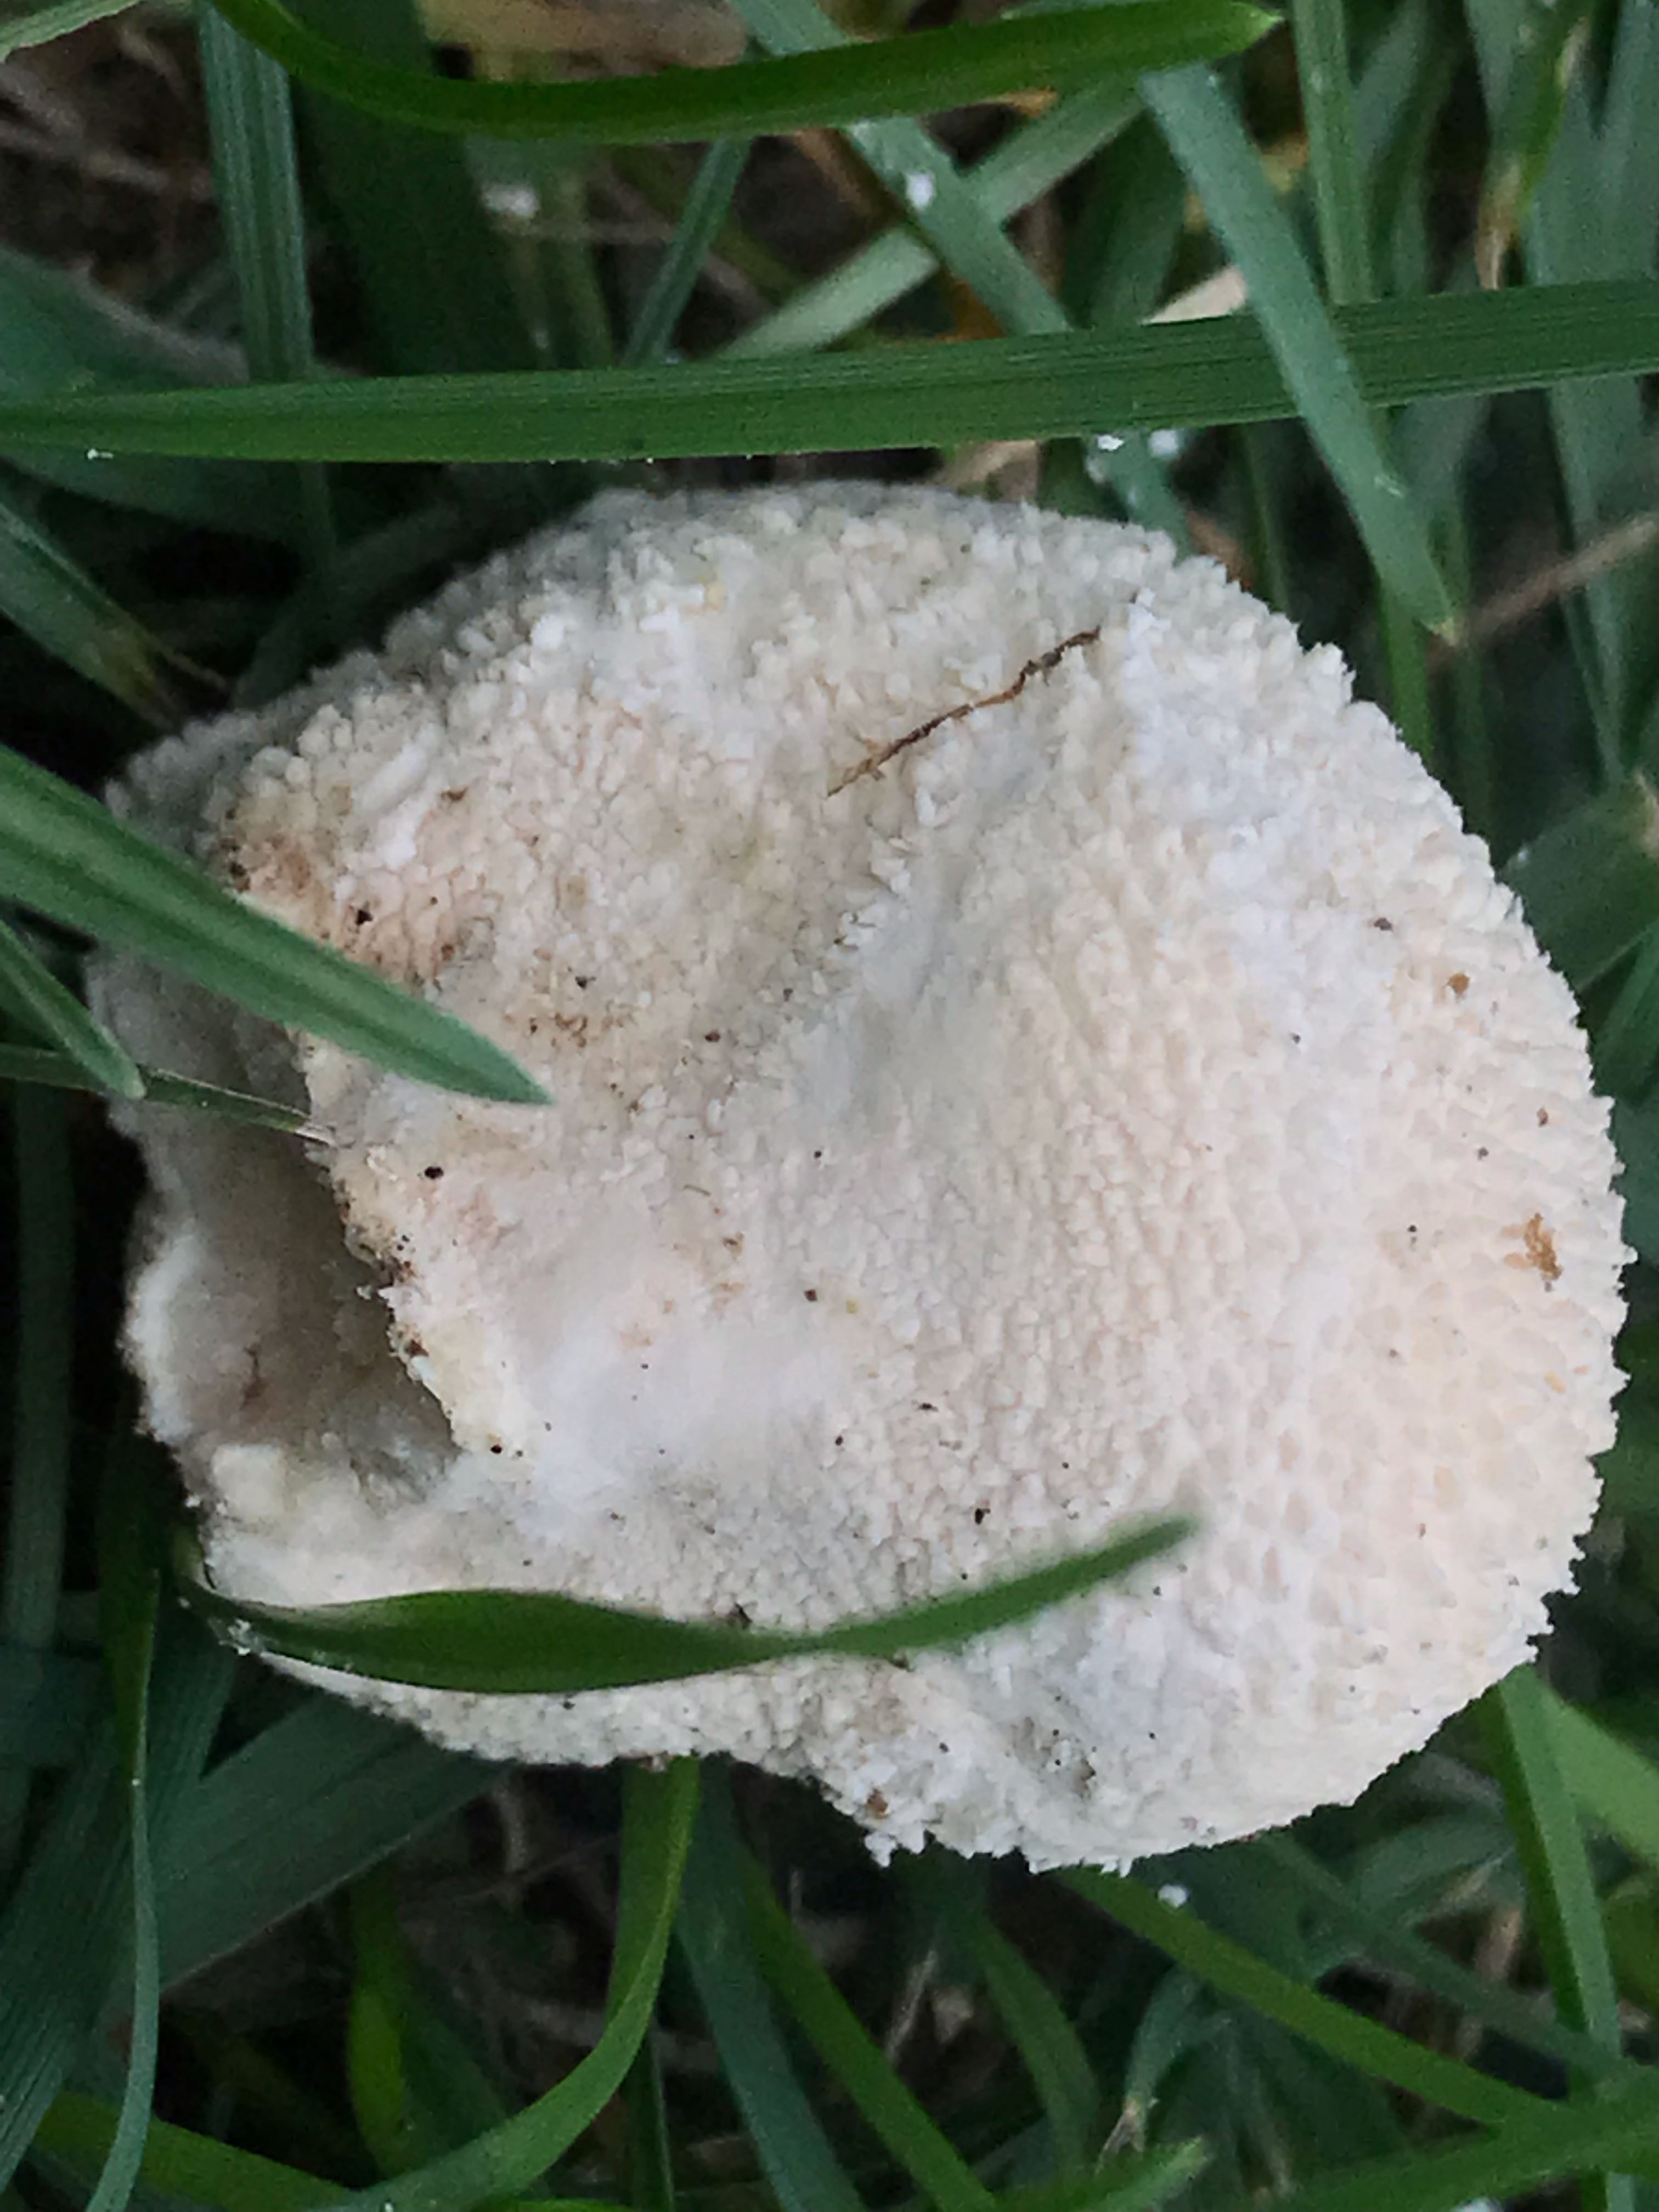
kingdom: Fungi
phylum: Basidiomycota
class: Agaricomycetes
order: Agaricales
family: Lycoperdaceae
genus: Lycoperdon
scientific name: Lycoperdon pratense
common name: flad støvbold
